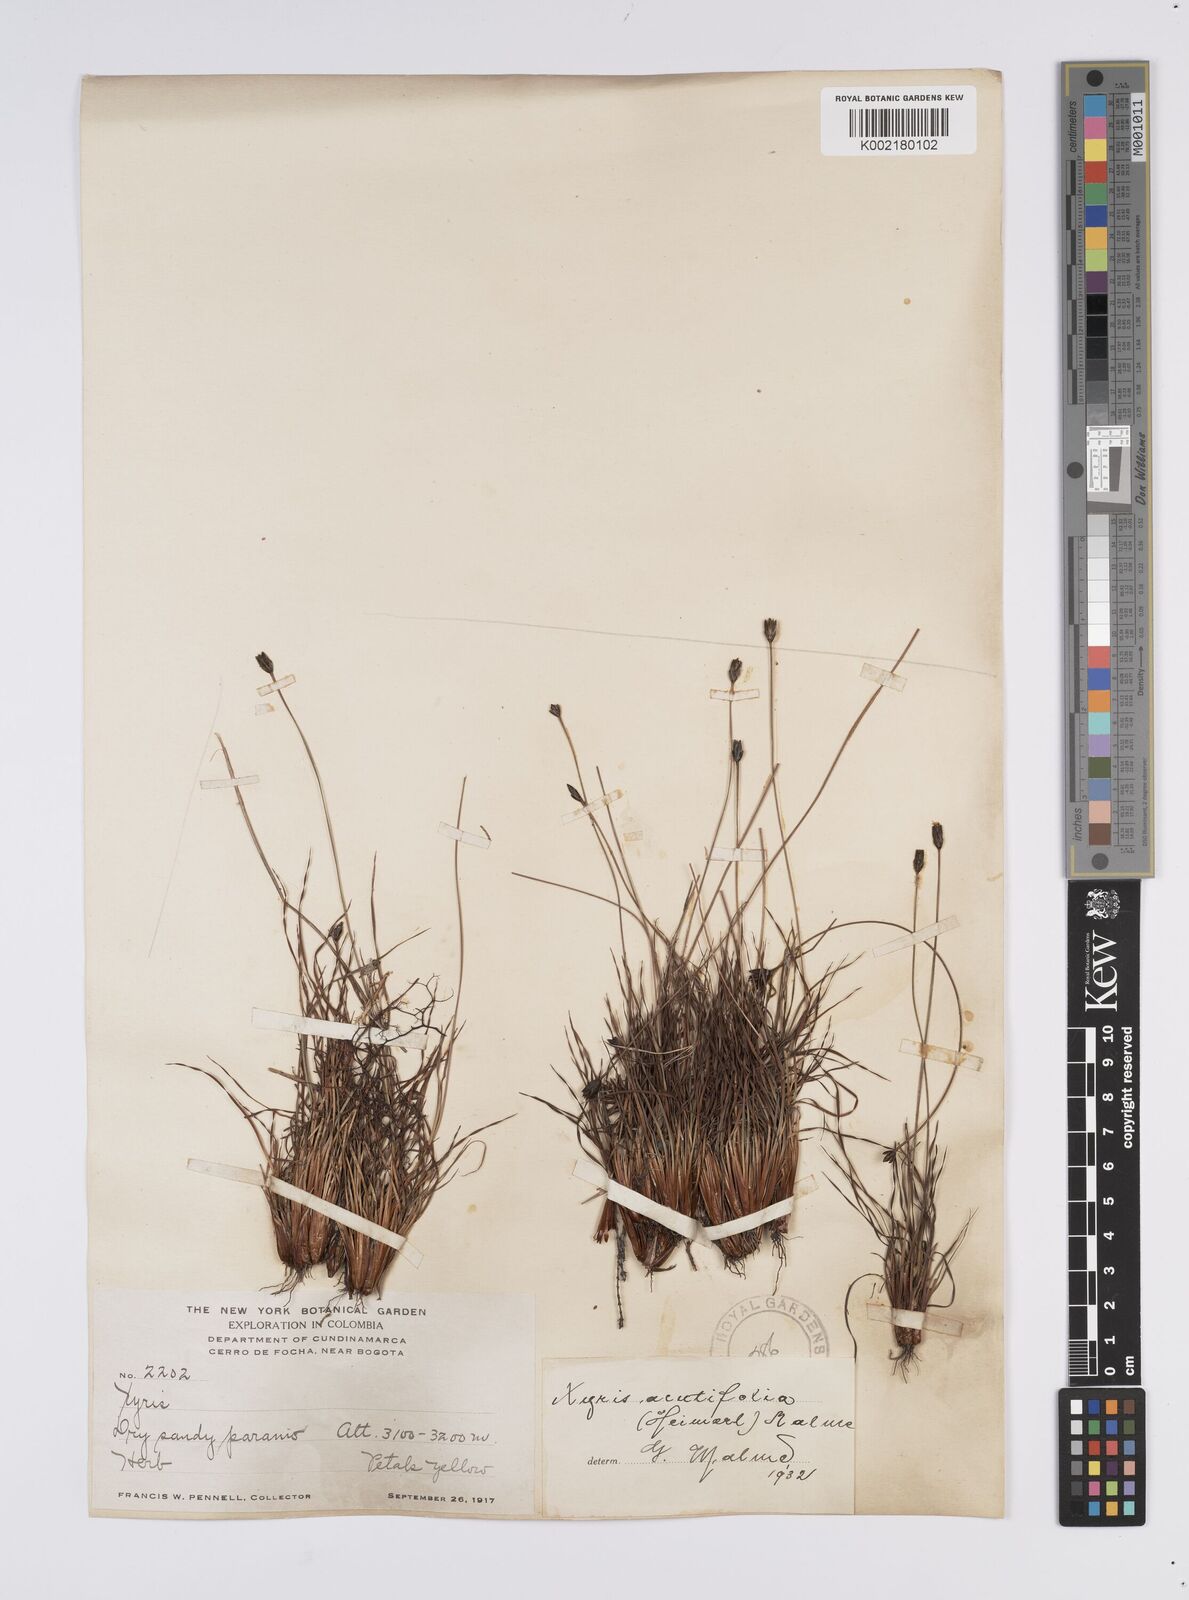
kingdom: Plantae
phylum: Tracheophyta
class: Liliopsida
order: Poales
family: Xyridaceae
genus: Xyris
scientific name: Xyris subulata
